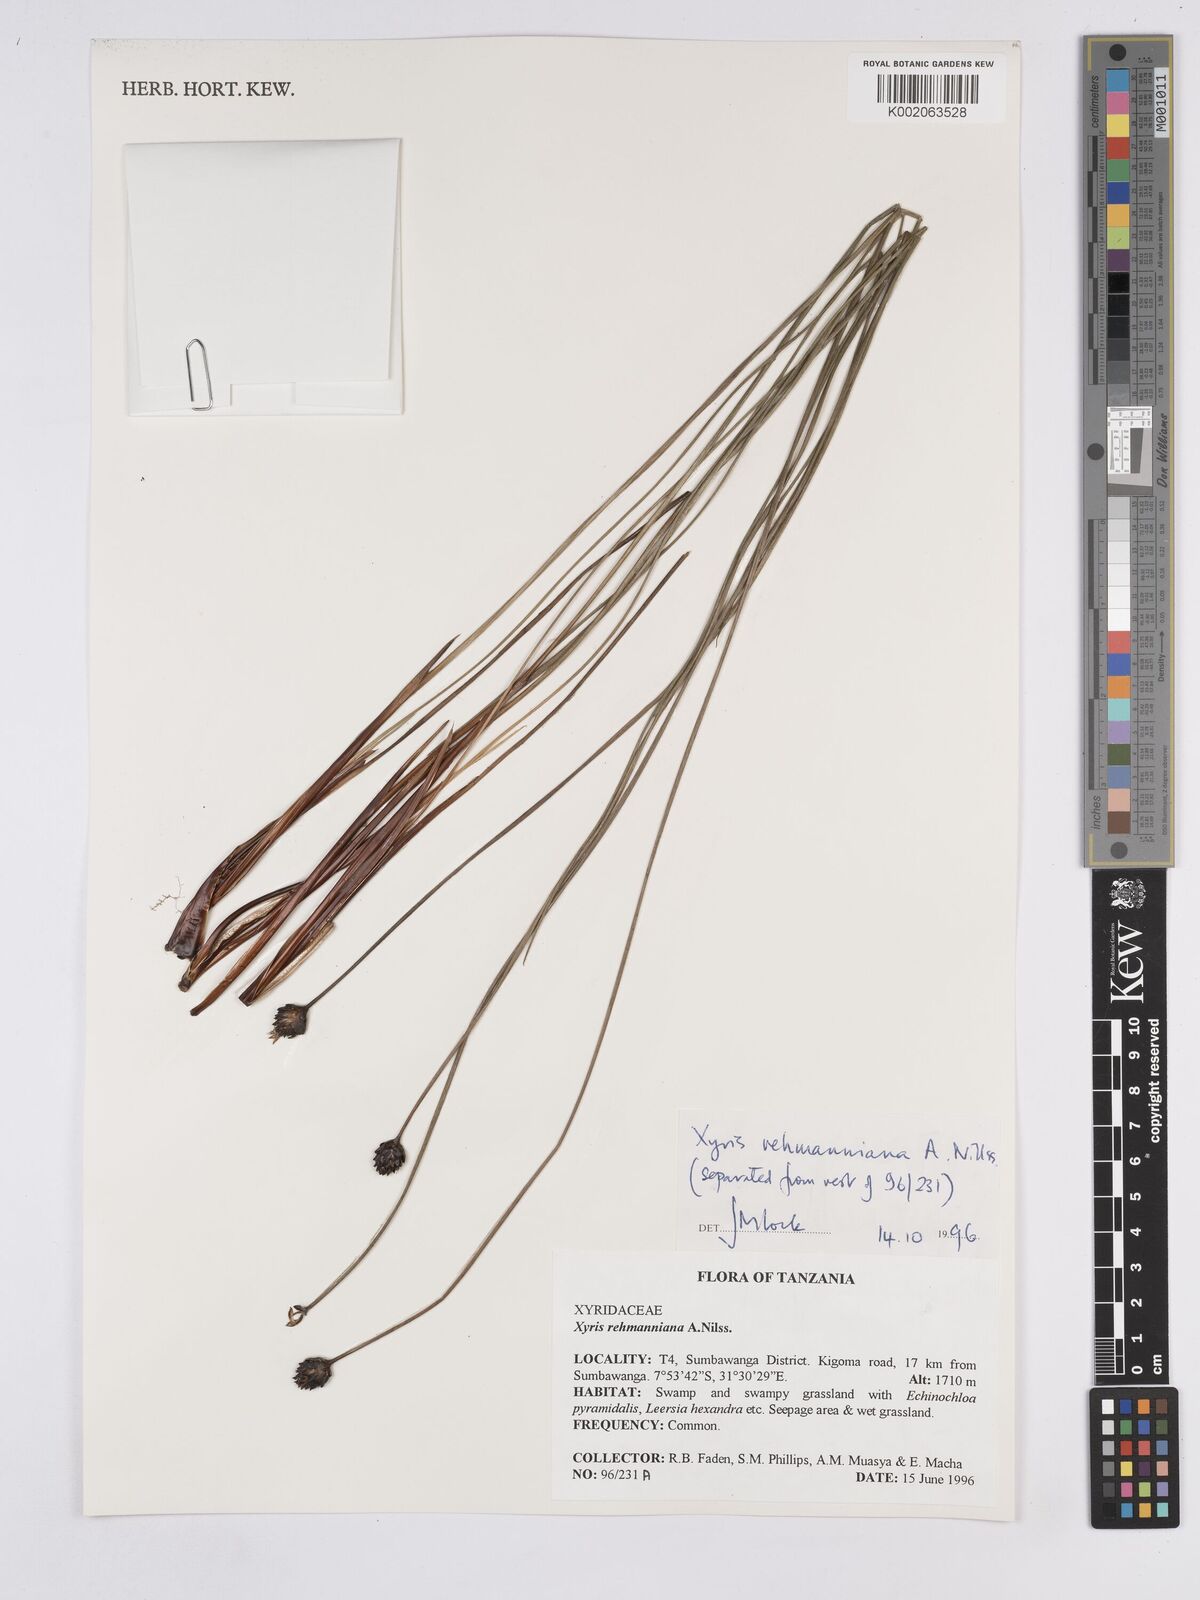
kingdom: Plantae
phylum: Tracheophyta
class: Liliopsida
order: Poales
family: Xyridaceae
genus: Xyris
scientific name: Xyris rehmannii
